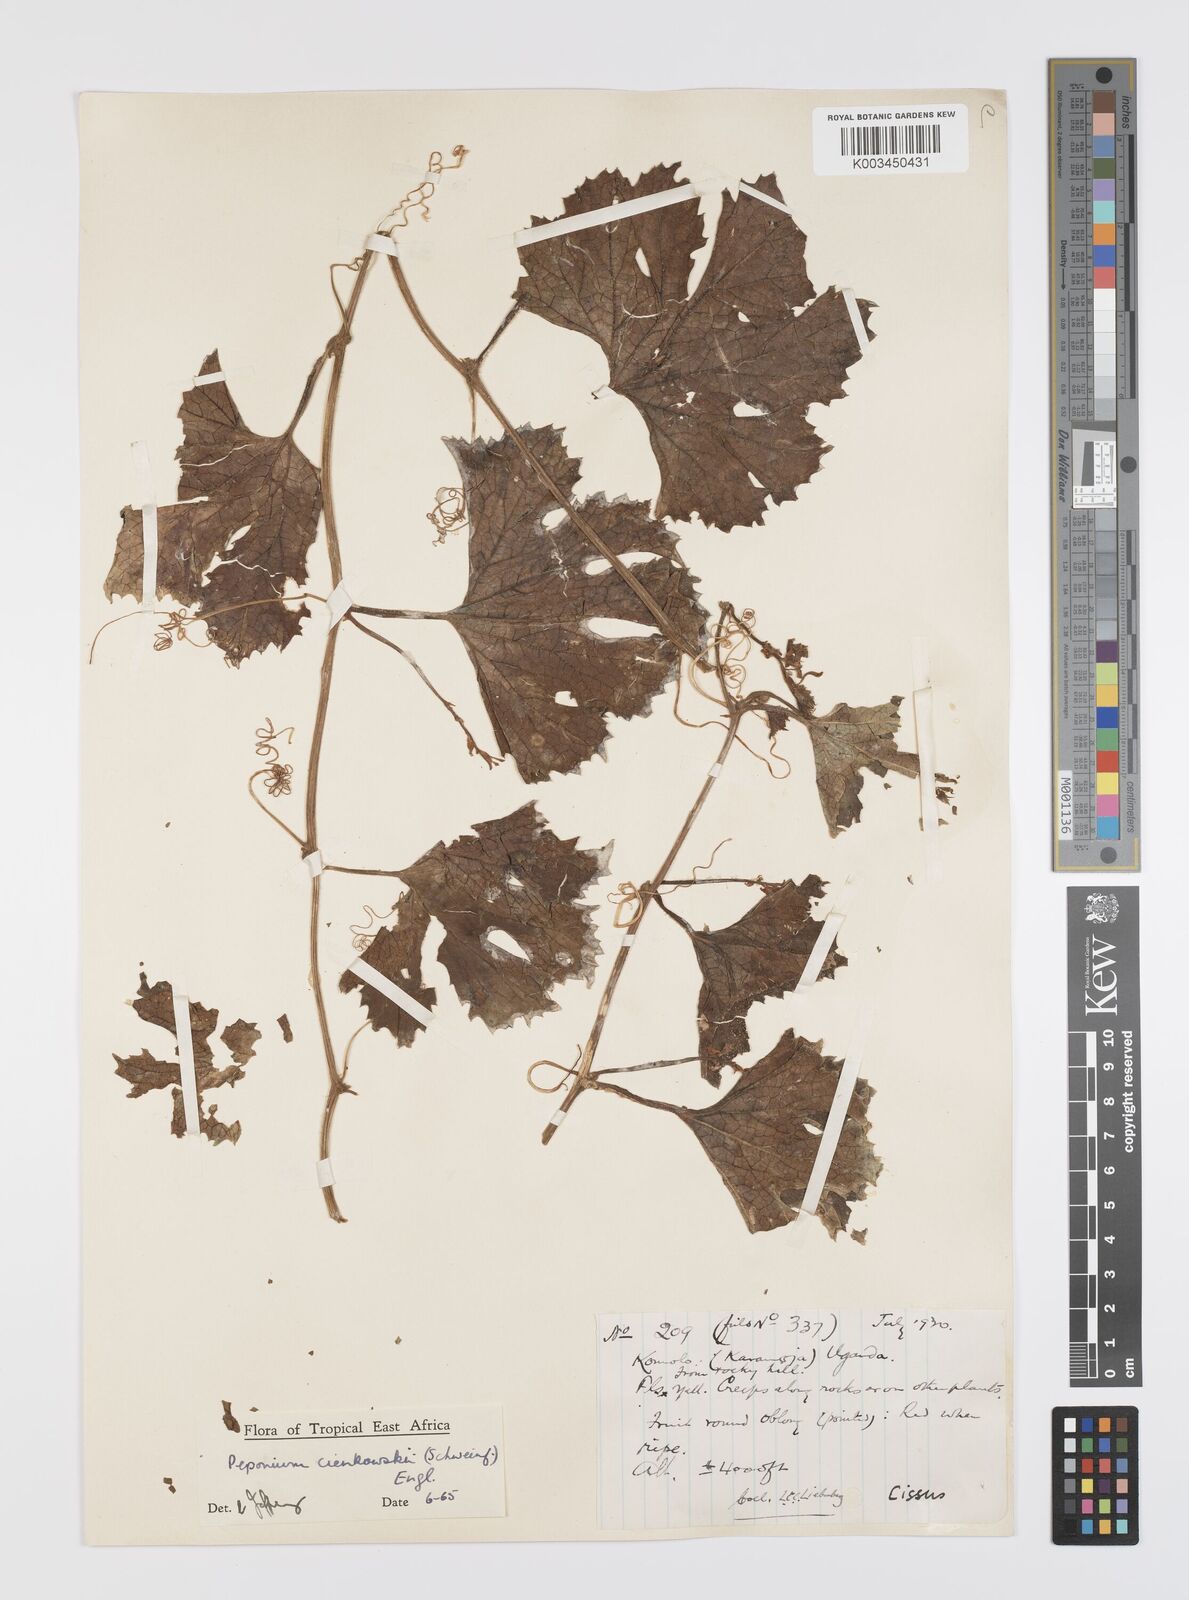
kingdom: Plantae
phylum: Tracheophyta
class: Magnoliopsida
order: Cucurbitales
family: Cucurbitaceae
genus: Peponium
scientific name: Peponium cienkowskii
